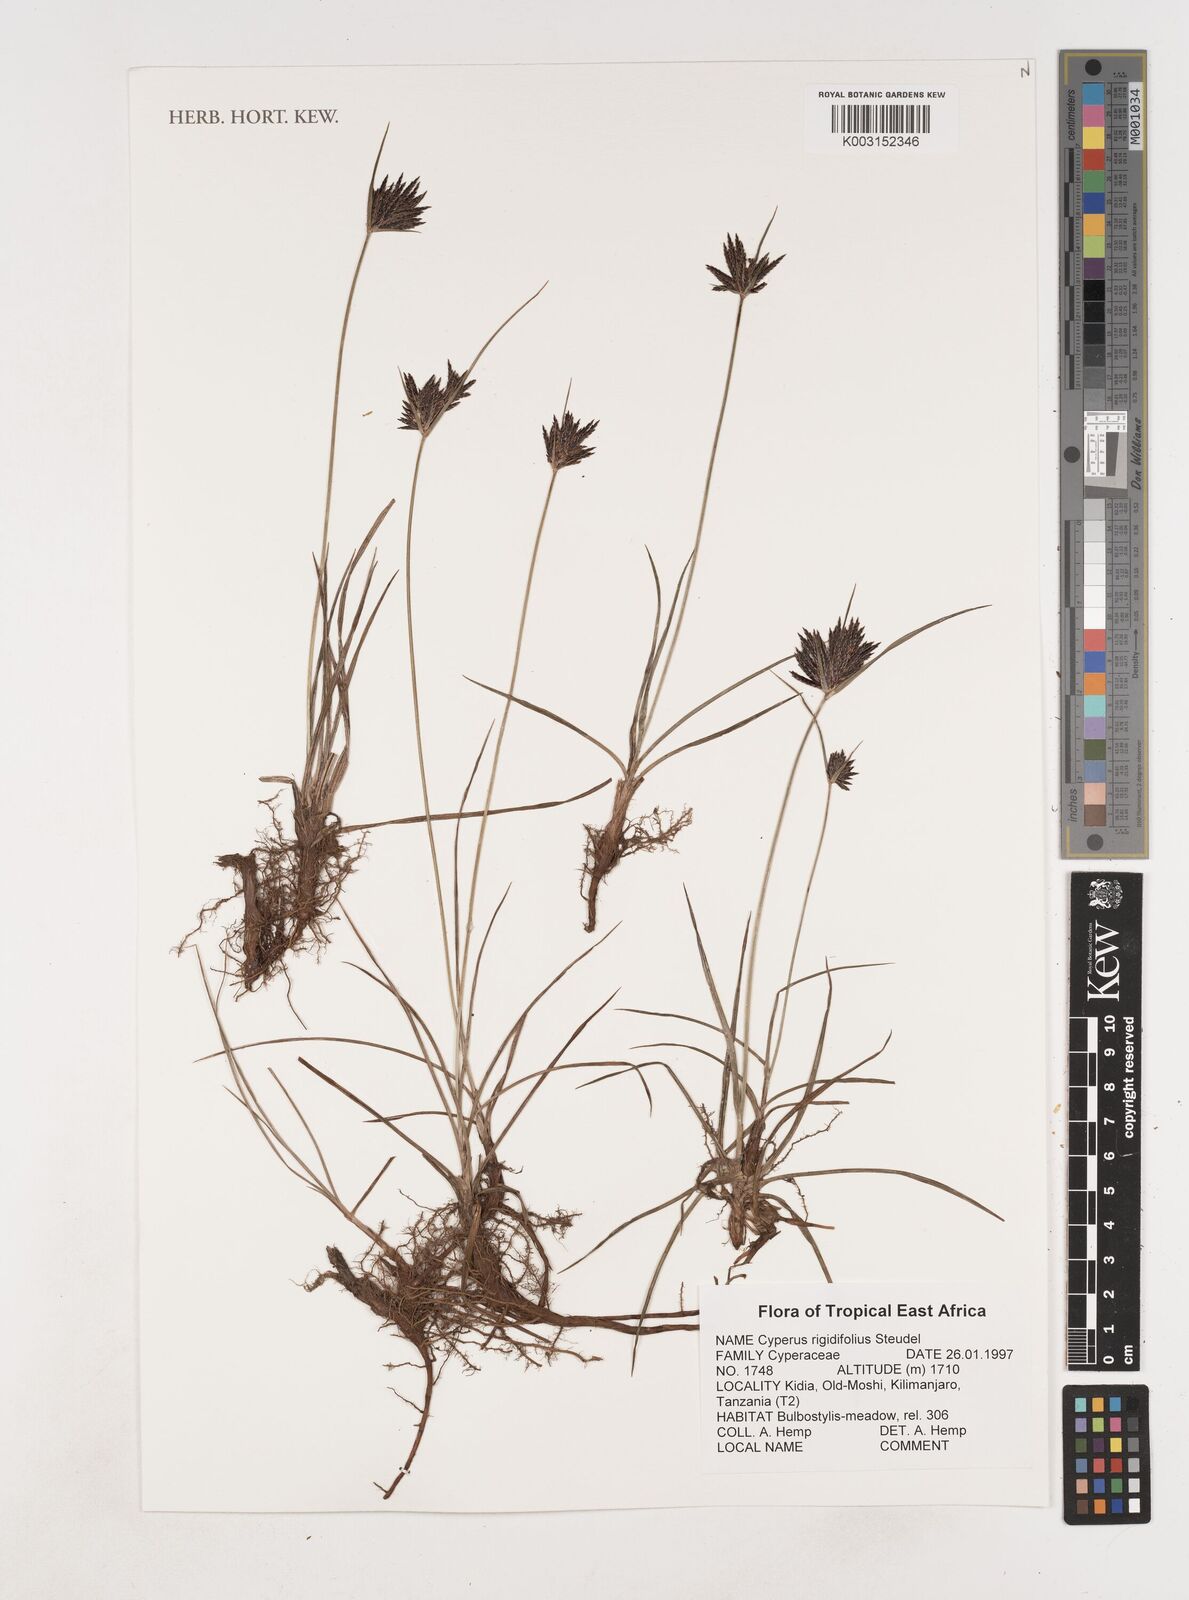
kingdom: Plantae
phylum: Tracheophyta
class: Liliopsida
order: Poales
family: Cyperaceae
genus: Cyperus
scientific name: Cyperus rigidifolius
